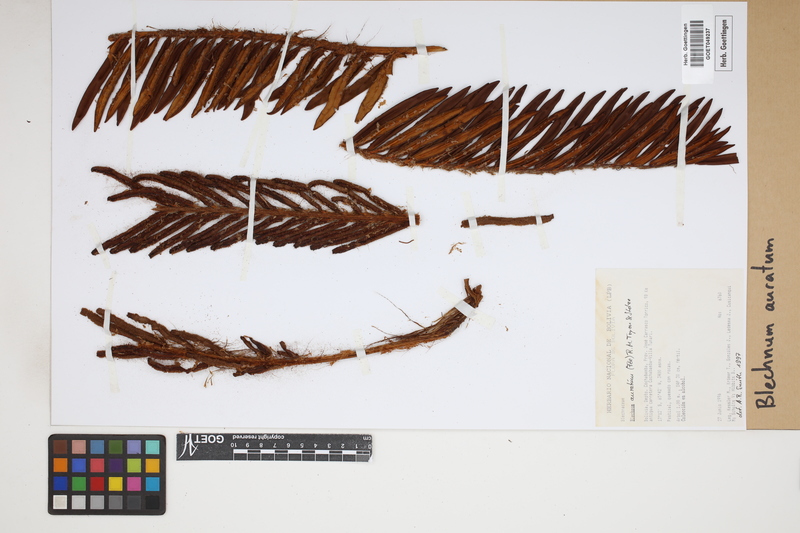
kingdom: Plantae
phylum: Tracheophyta
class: Polypodiopsida
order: Polypodiales
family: Blechnaceae
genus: Lomariocycas
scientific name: Lomariocycas aurata
